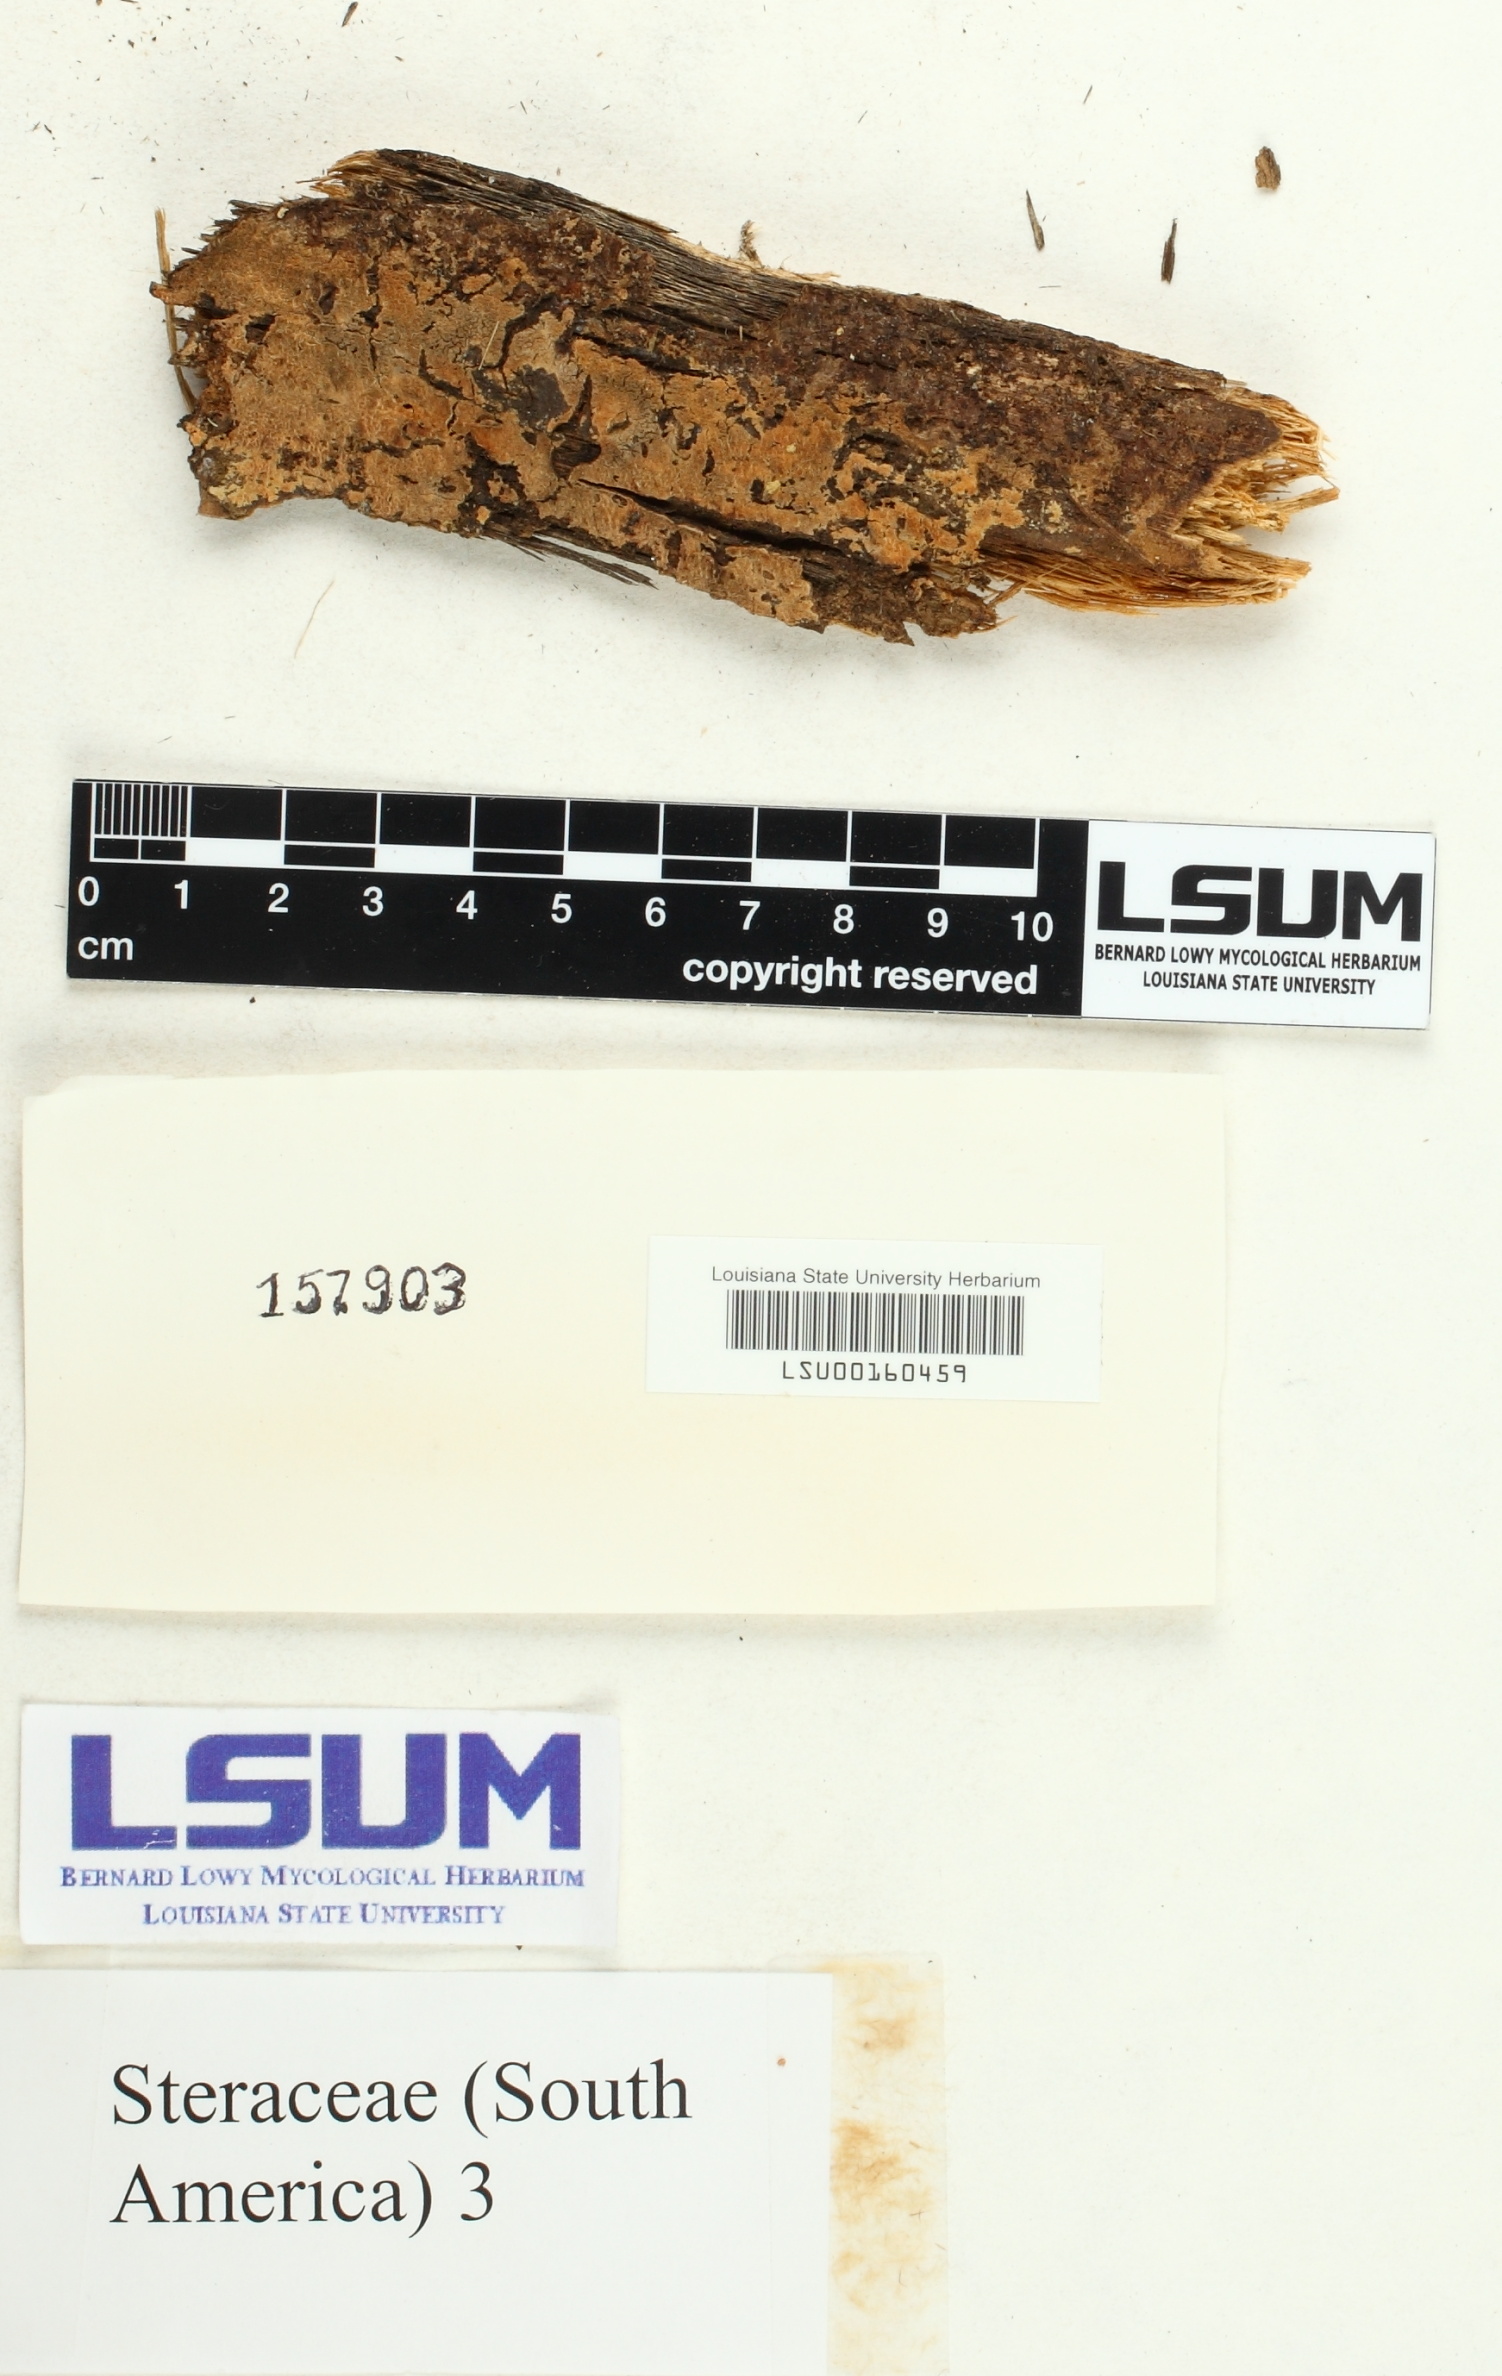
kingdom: Fungi
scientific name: Fungi
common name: Fungi
